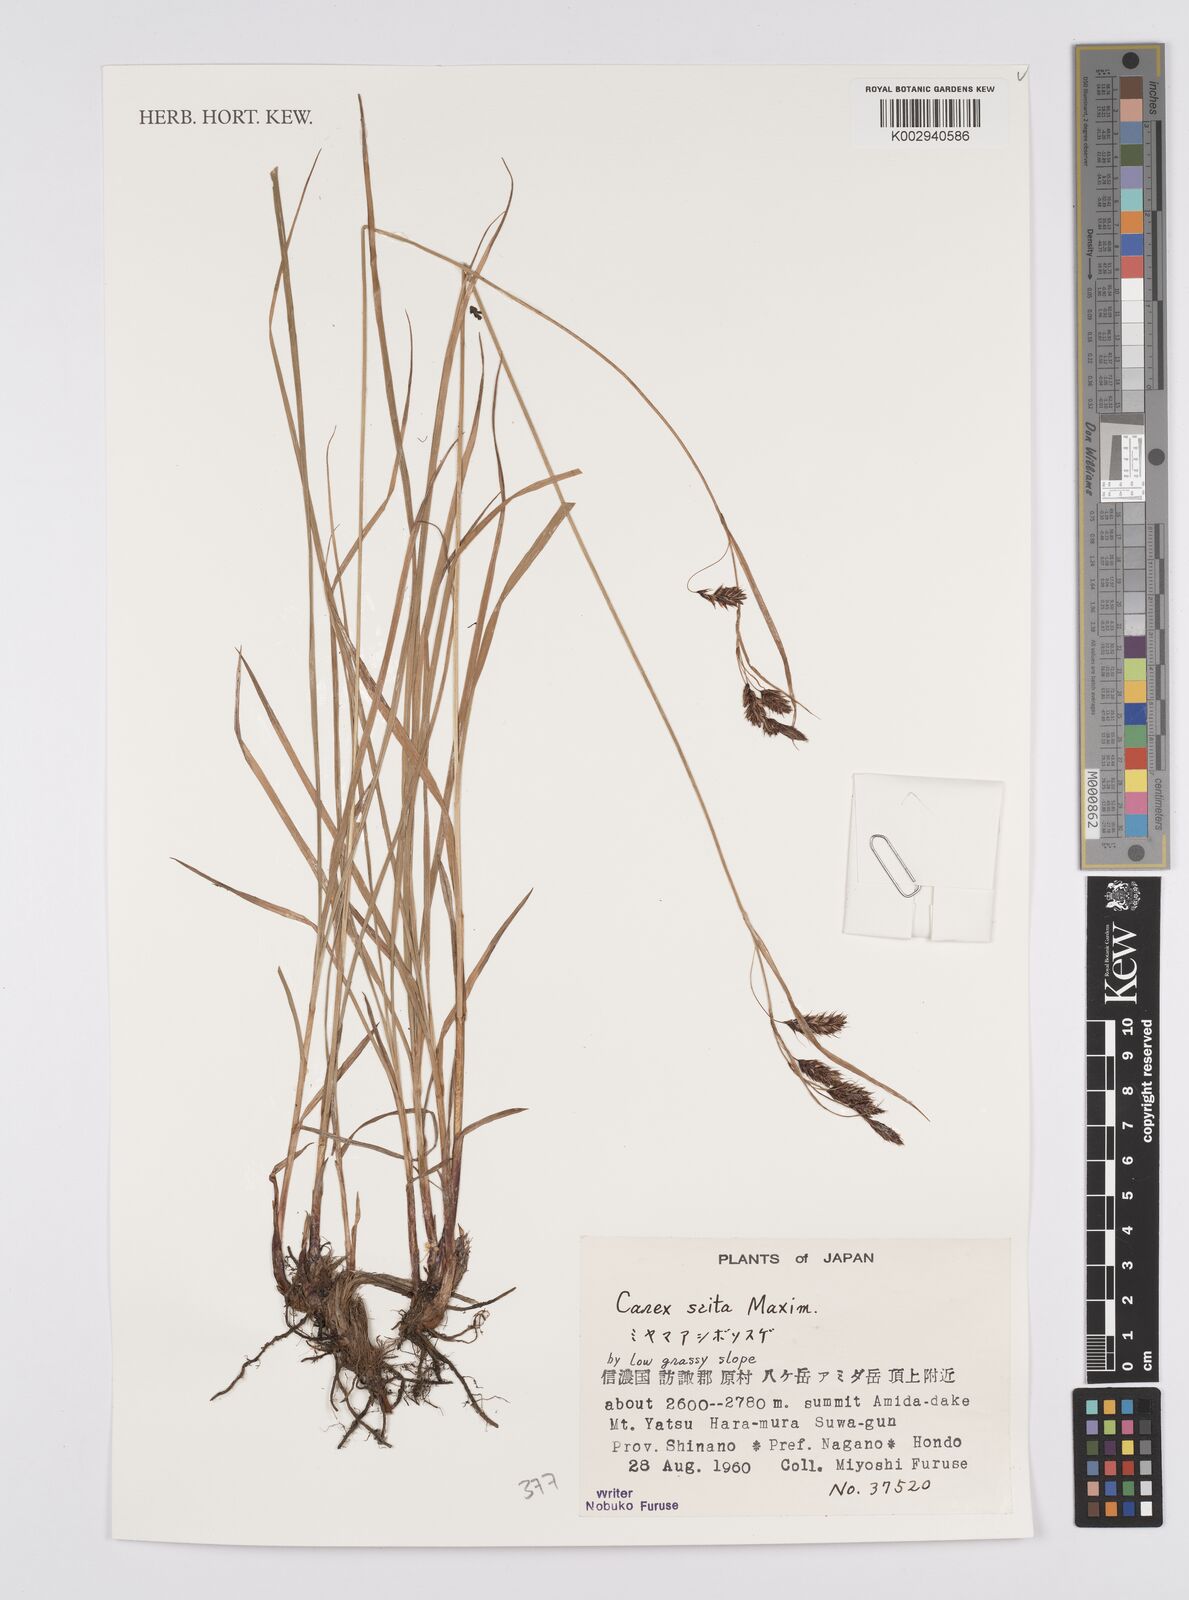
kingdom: Plantae
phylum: Tracheophyta
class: Liliopsida
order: Poales
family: Cyperaceae
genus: Carex
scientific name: Carex scita
